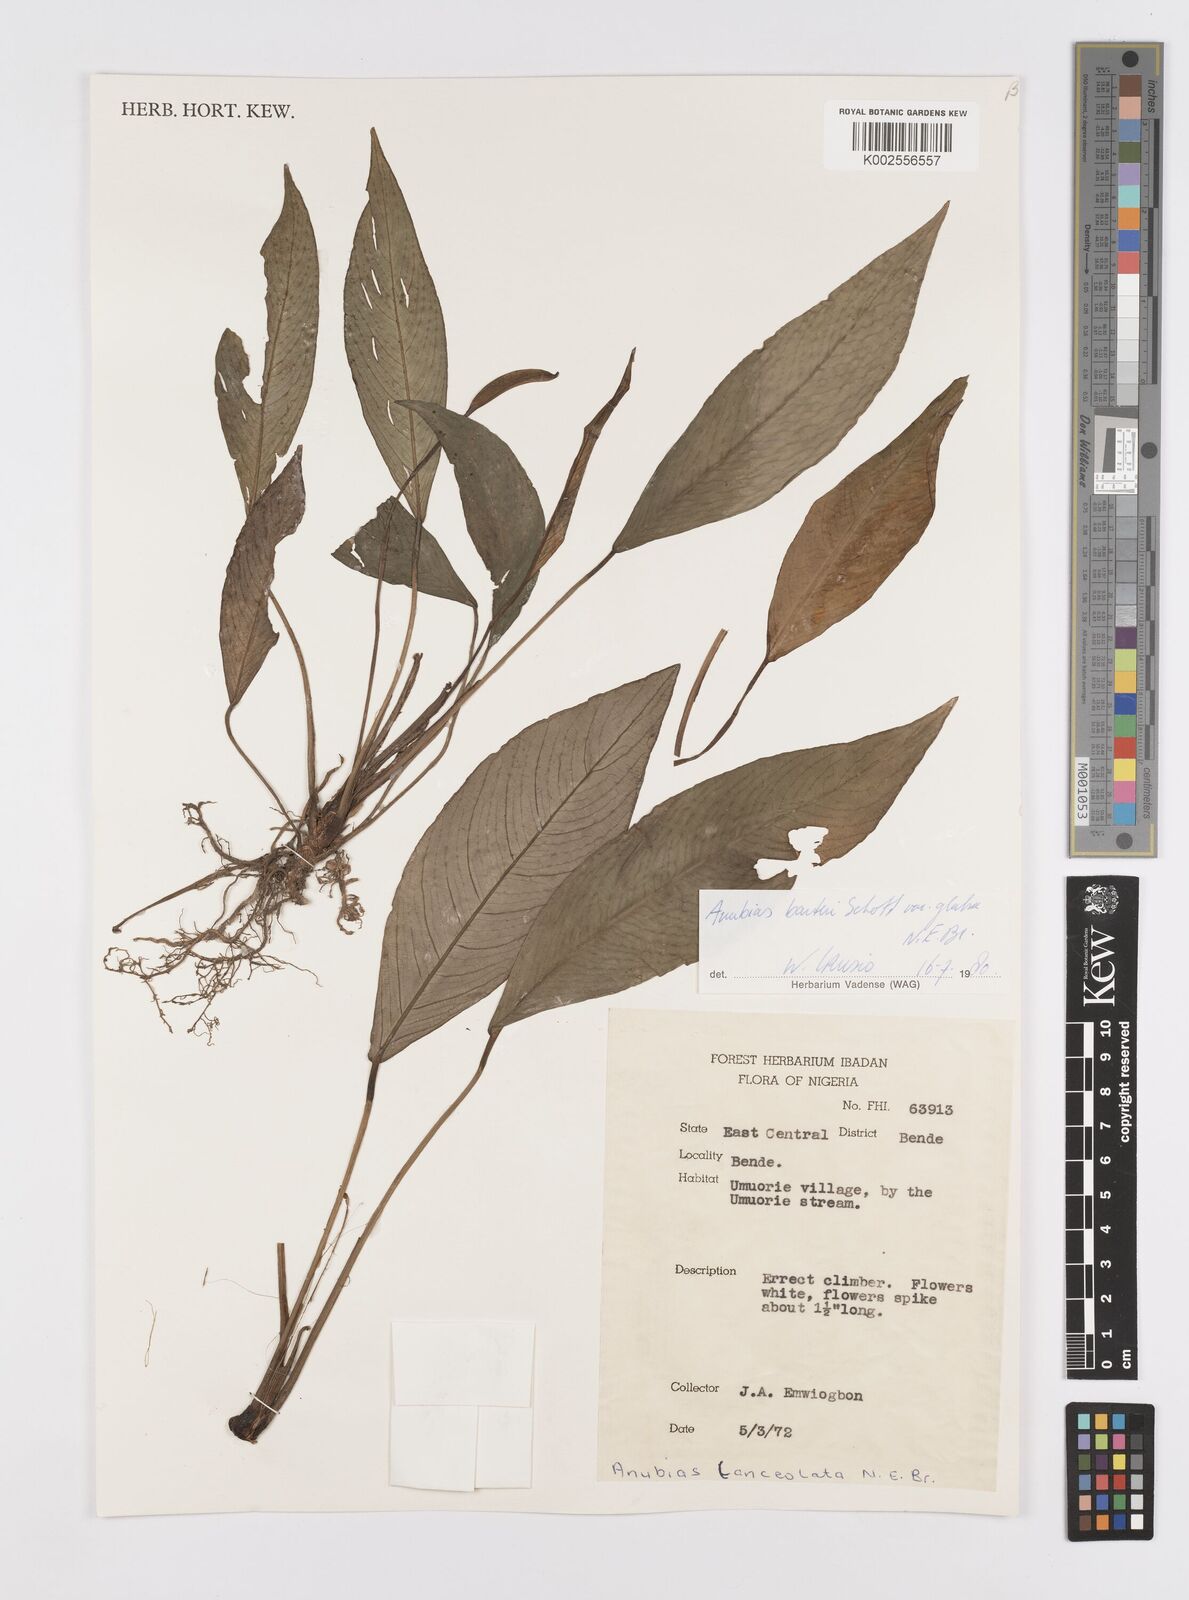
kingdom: Plantae
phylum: Tracheophyta
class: Liliopsida
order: Alismatales
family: Araceae
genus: Anubias
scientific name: Anubias barteri
